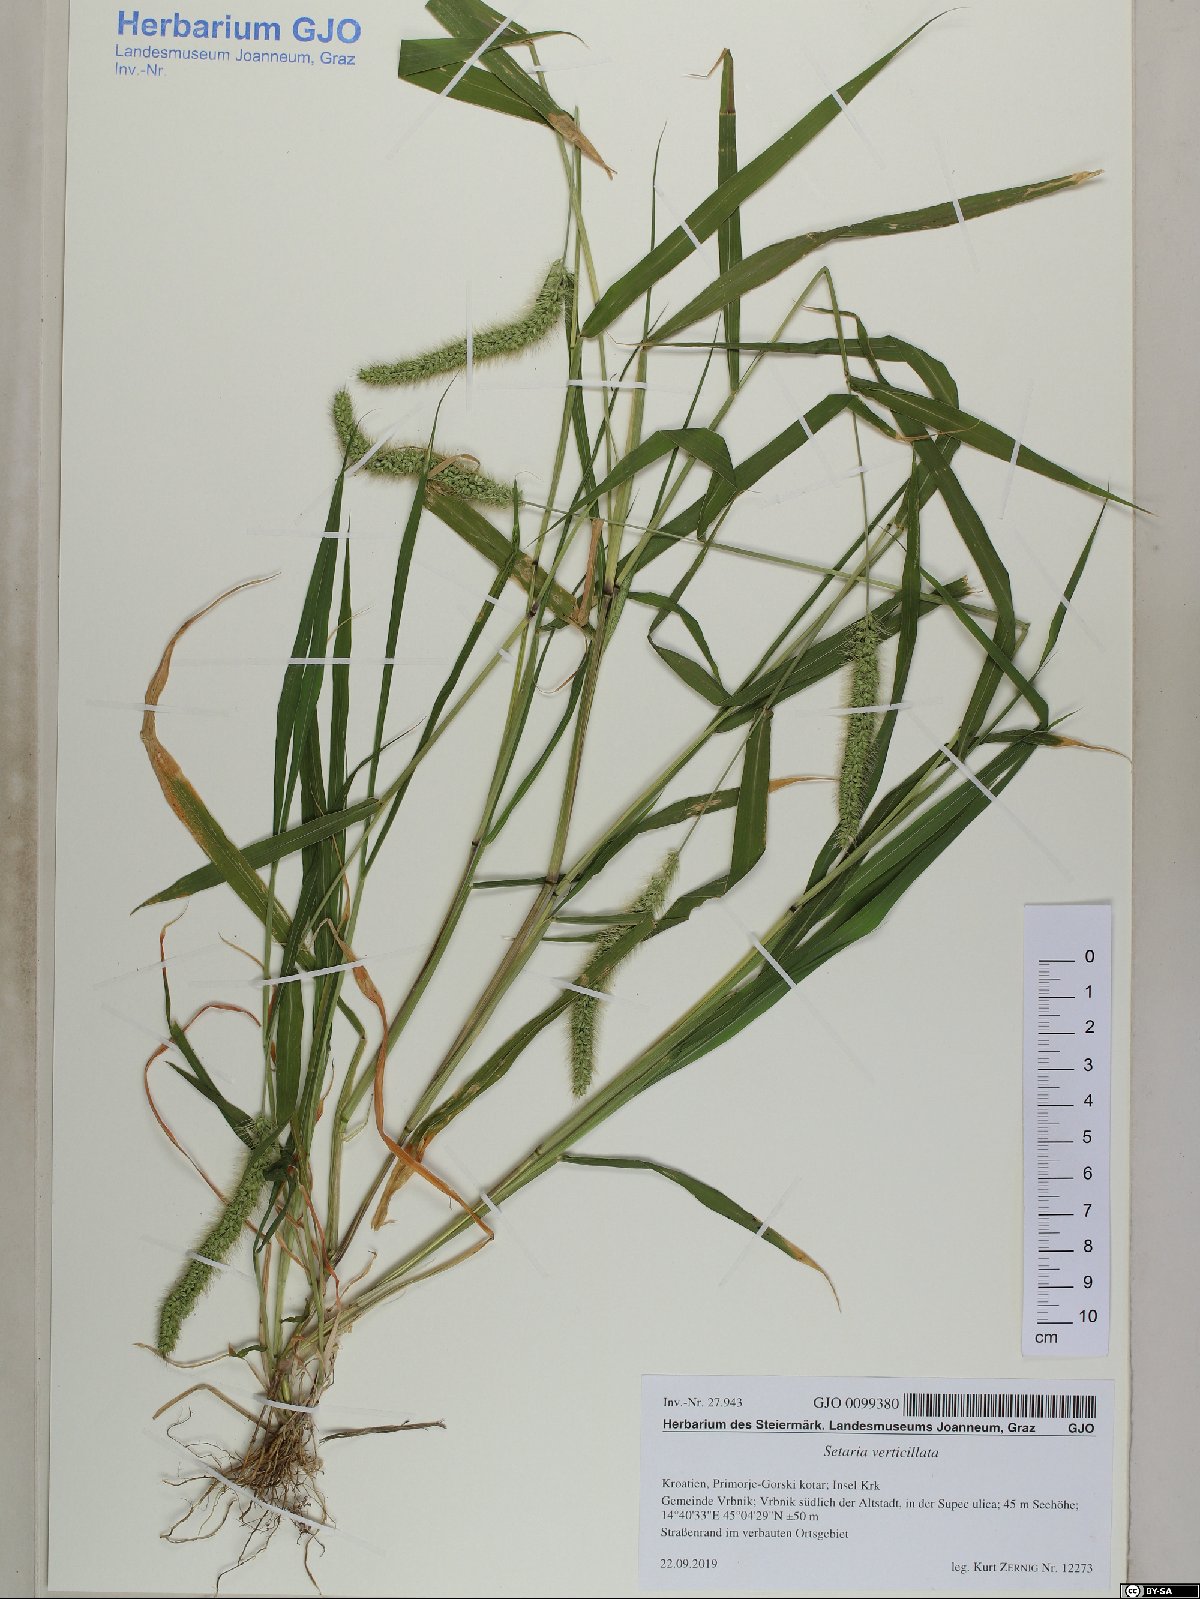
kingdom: Plantae
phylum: Tracheophyta
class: Liliopsida
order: Poales
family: Poaceae
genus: Setaria
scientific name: Setaria verticillata
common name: Hooked bristlegrass
